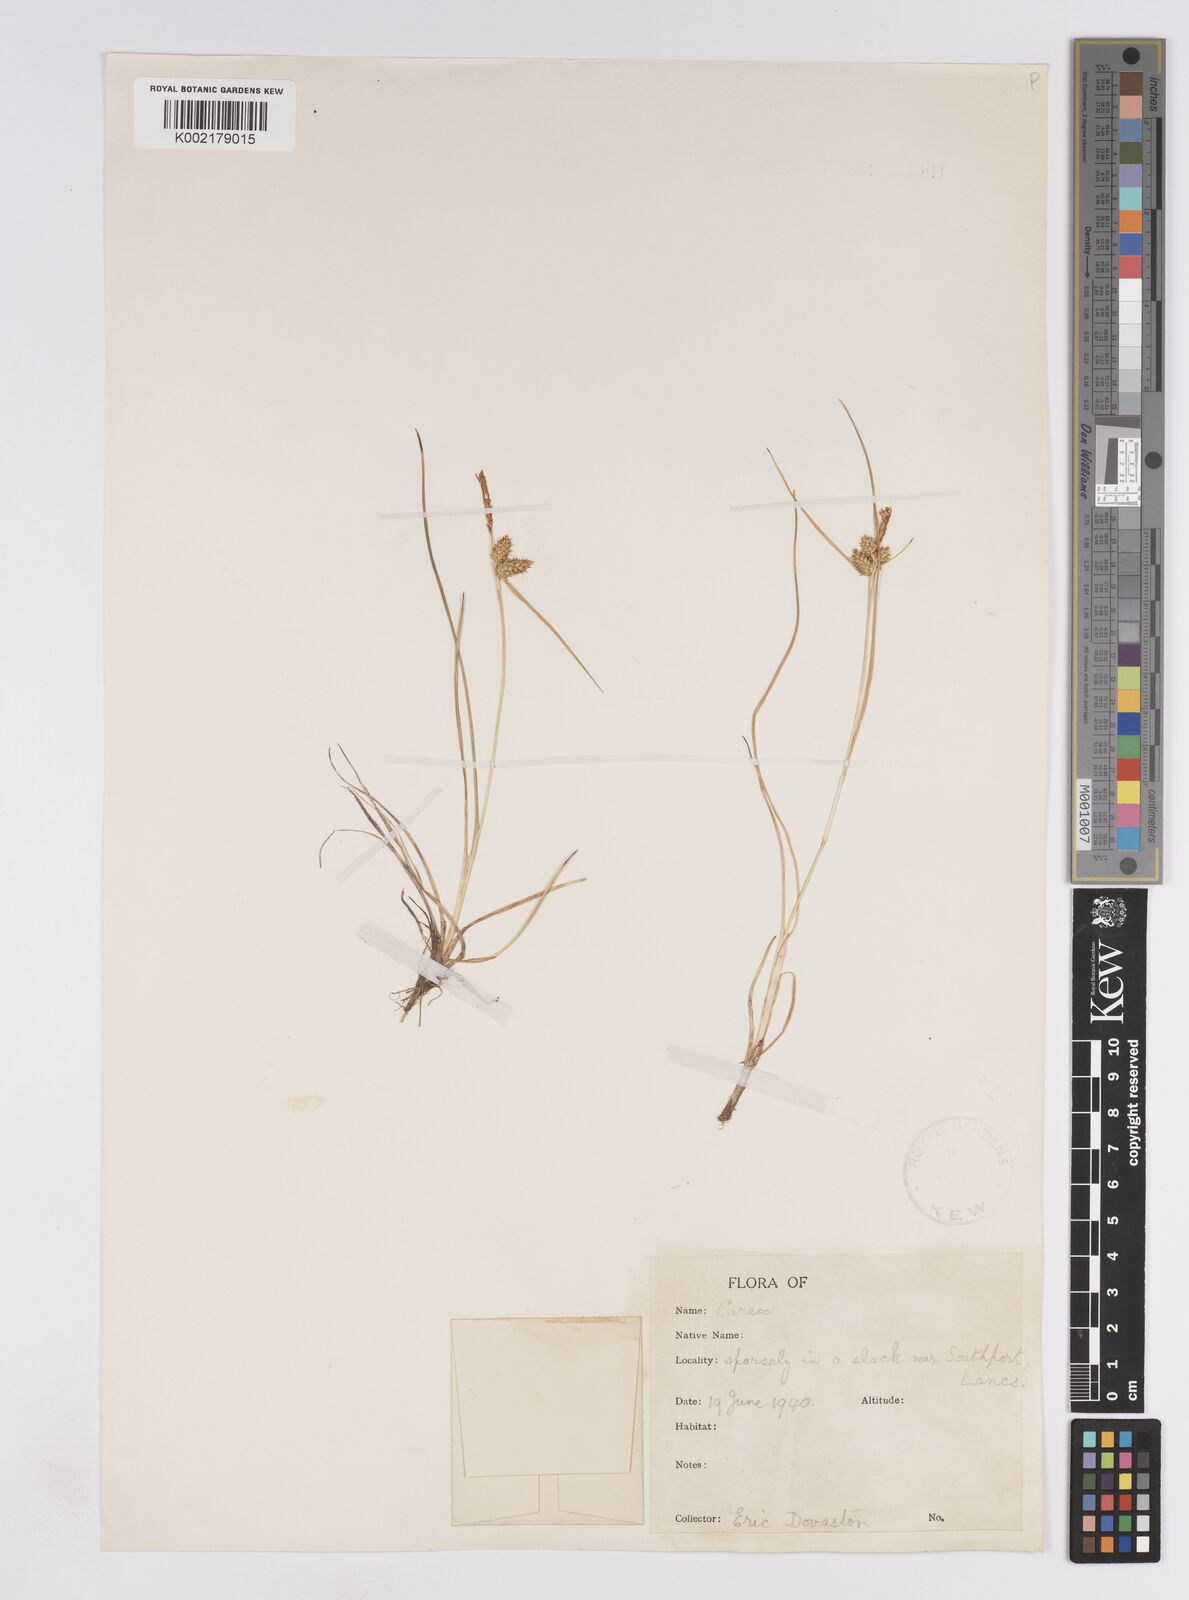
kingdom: Plantae
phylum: Tracheophyta
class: Liliopsida
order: Poales
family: Cyperaceae
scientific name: Cyperaceae
